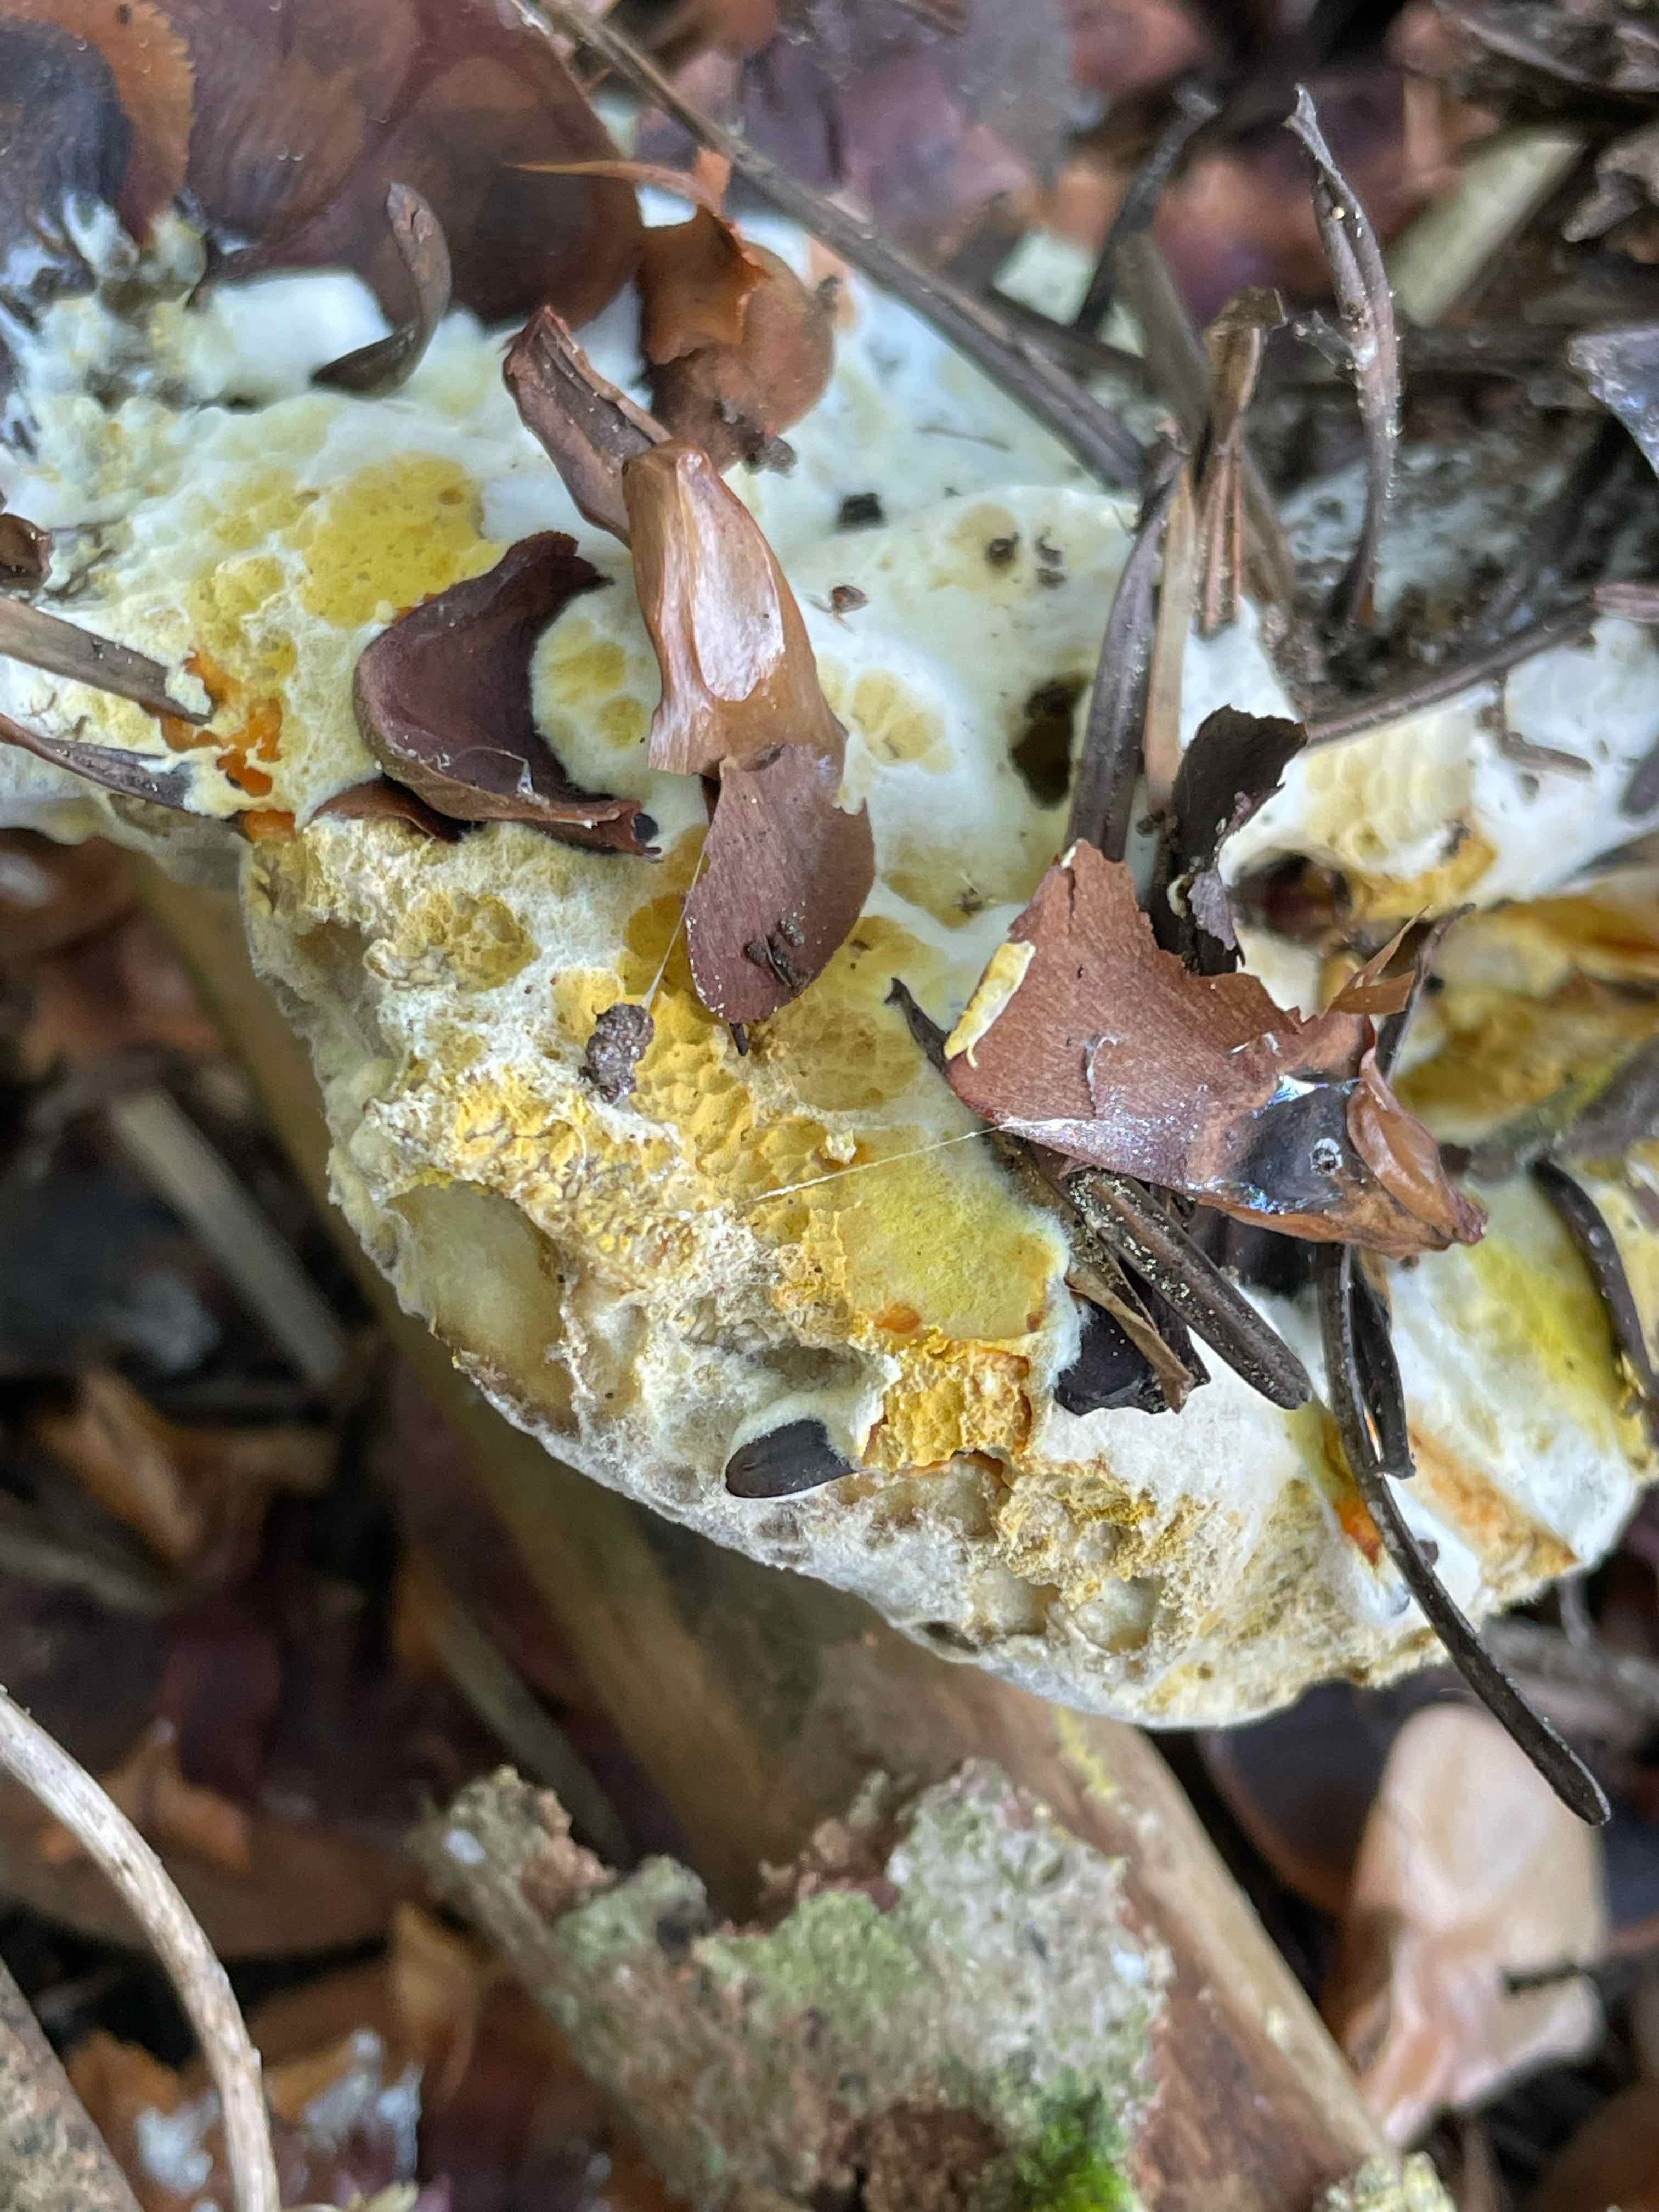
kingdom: Fungi
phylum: Ascomycota
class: Sordariomycetes
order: Hypocreales
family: Hypocreaceae
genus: Hypomyces
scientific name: Hypomyces microspermus
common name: dværgrørhat-snylteskorpe
